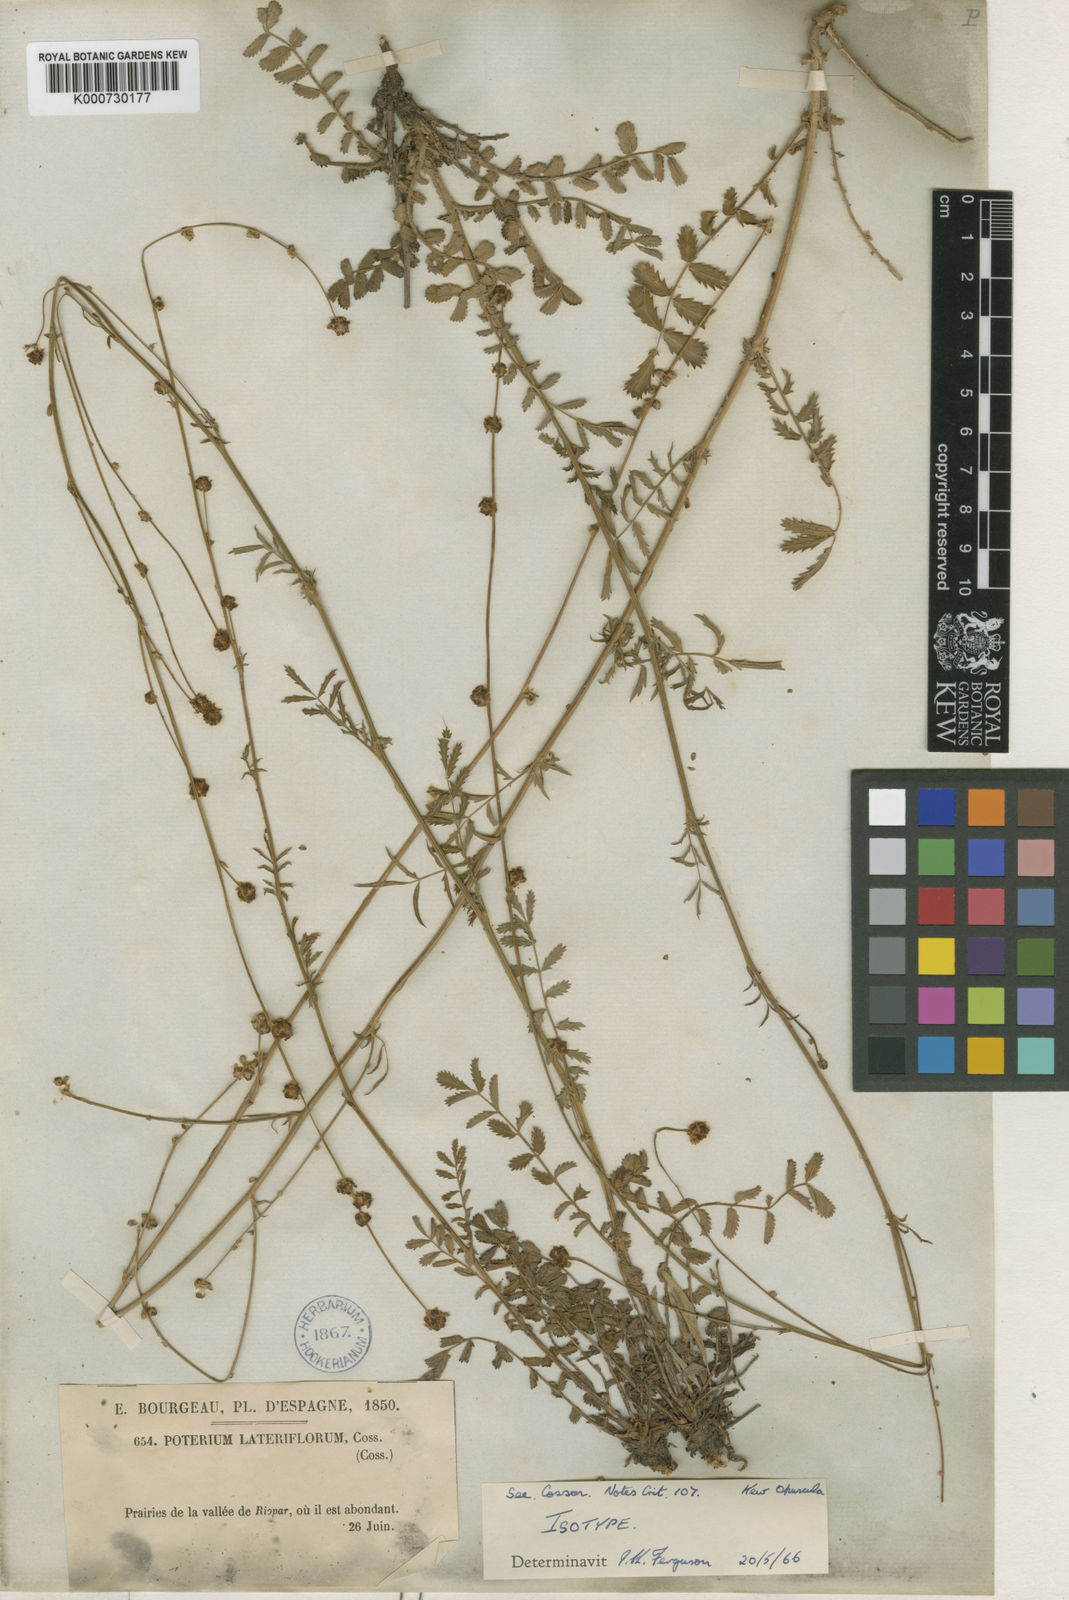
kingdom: Plantae
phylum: Tracheophyta
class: Magnoliopsida
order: Rosales
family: Rosaceae
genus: Poterium
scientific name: Poterium sanguisorba
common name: Salad burnet
